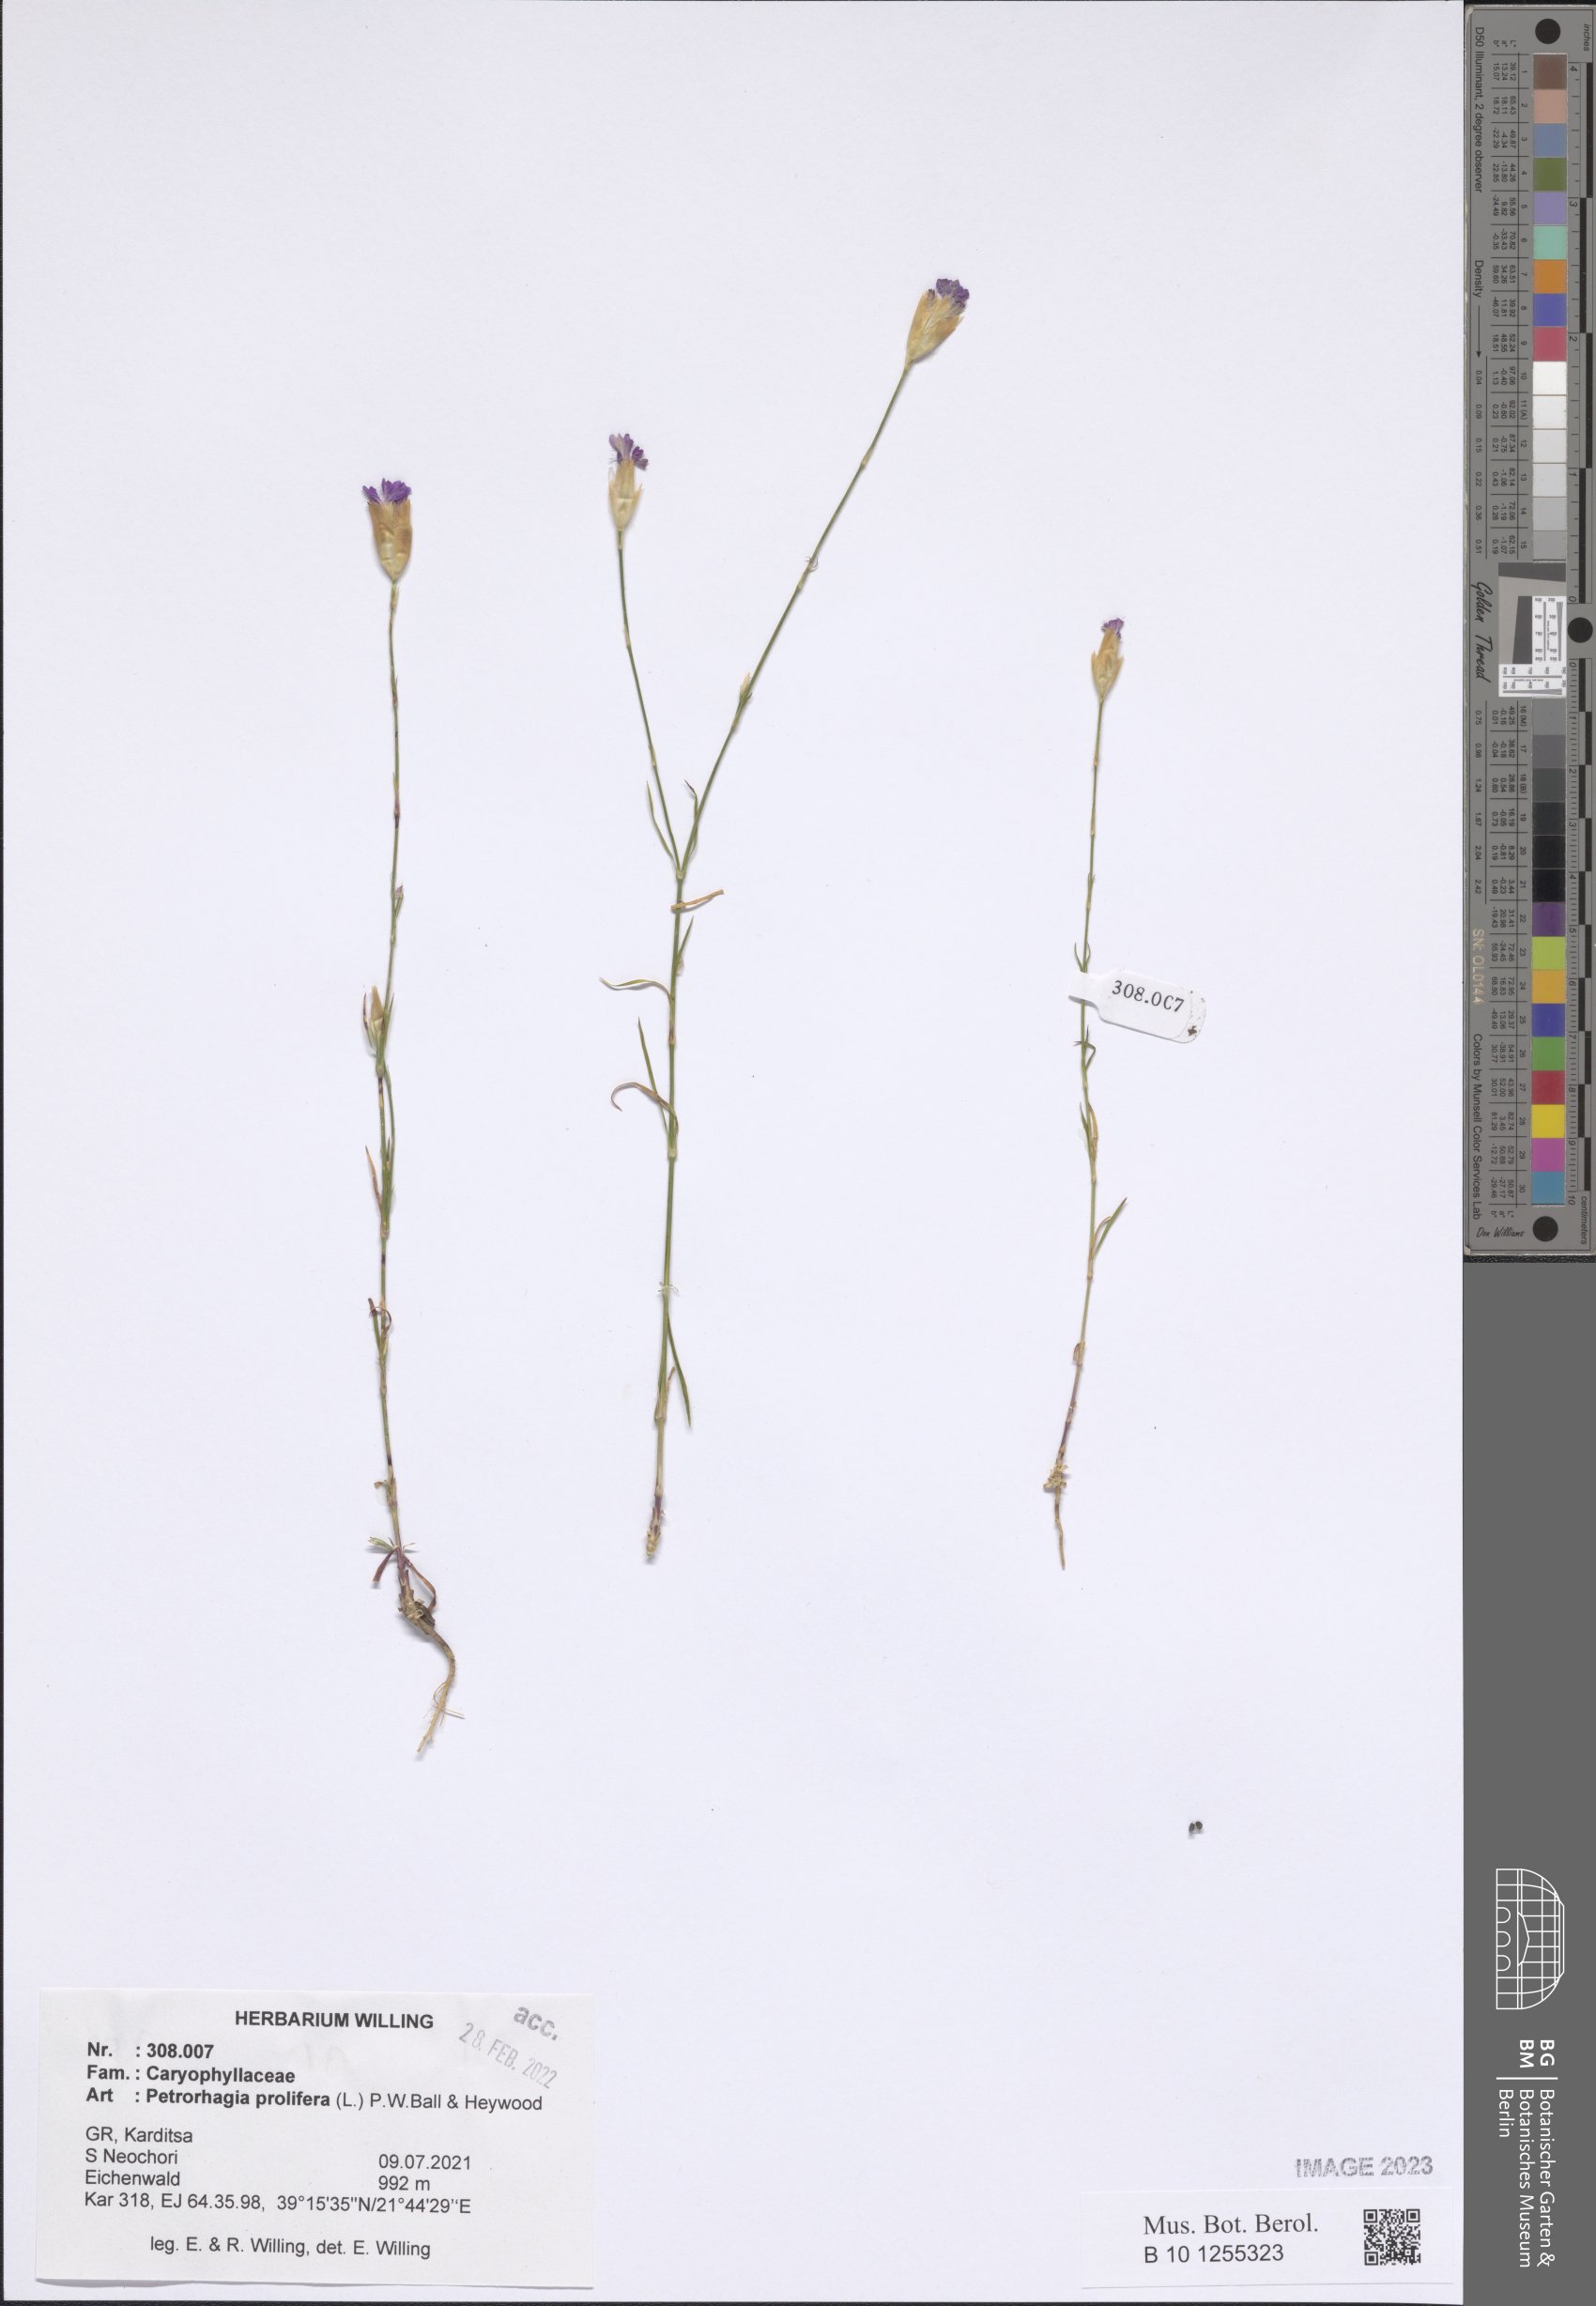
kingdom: Plantae
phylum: Tracheophyta
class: Magnoliopsida
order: Caryophyllales
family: Caryophyllaceae
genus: Petrorhagia
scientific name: Petrorhagia prolifera
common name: Proliferous pink
